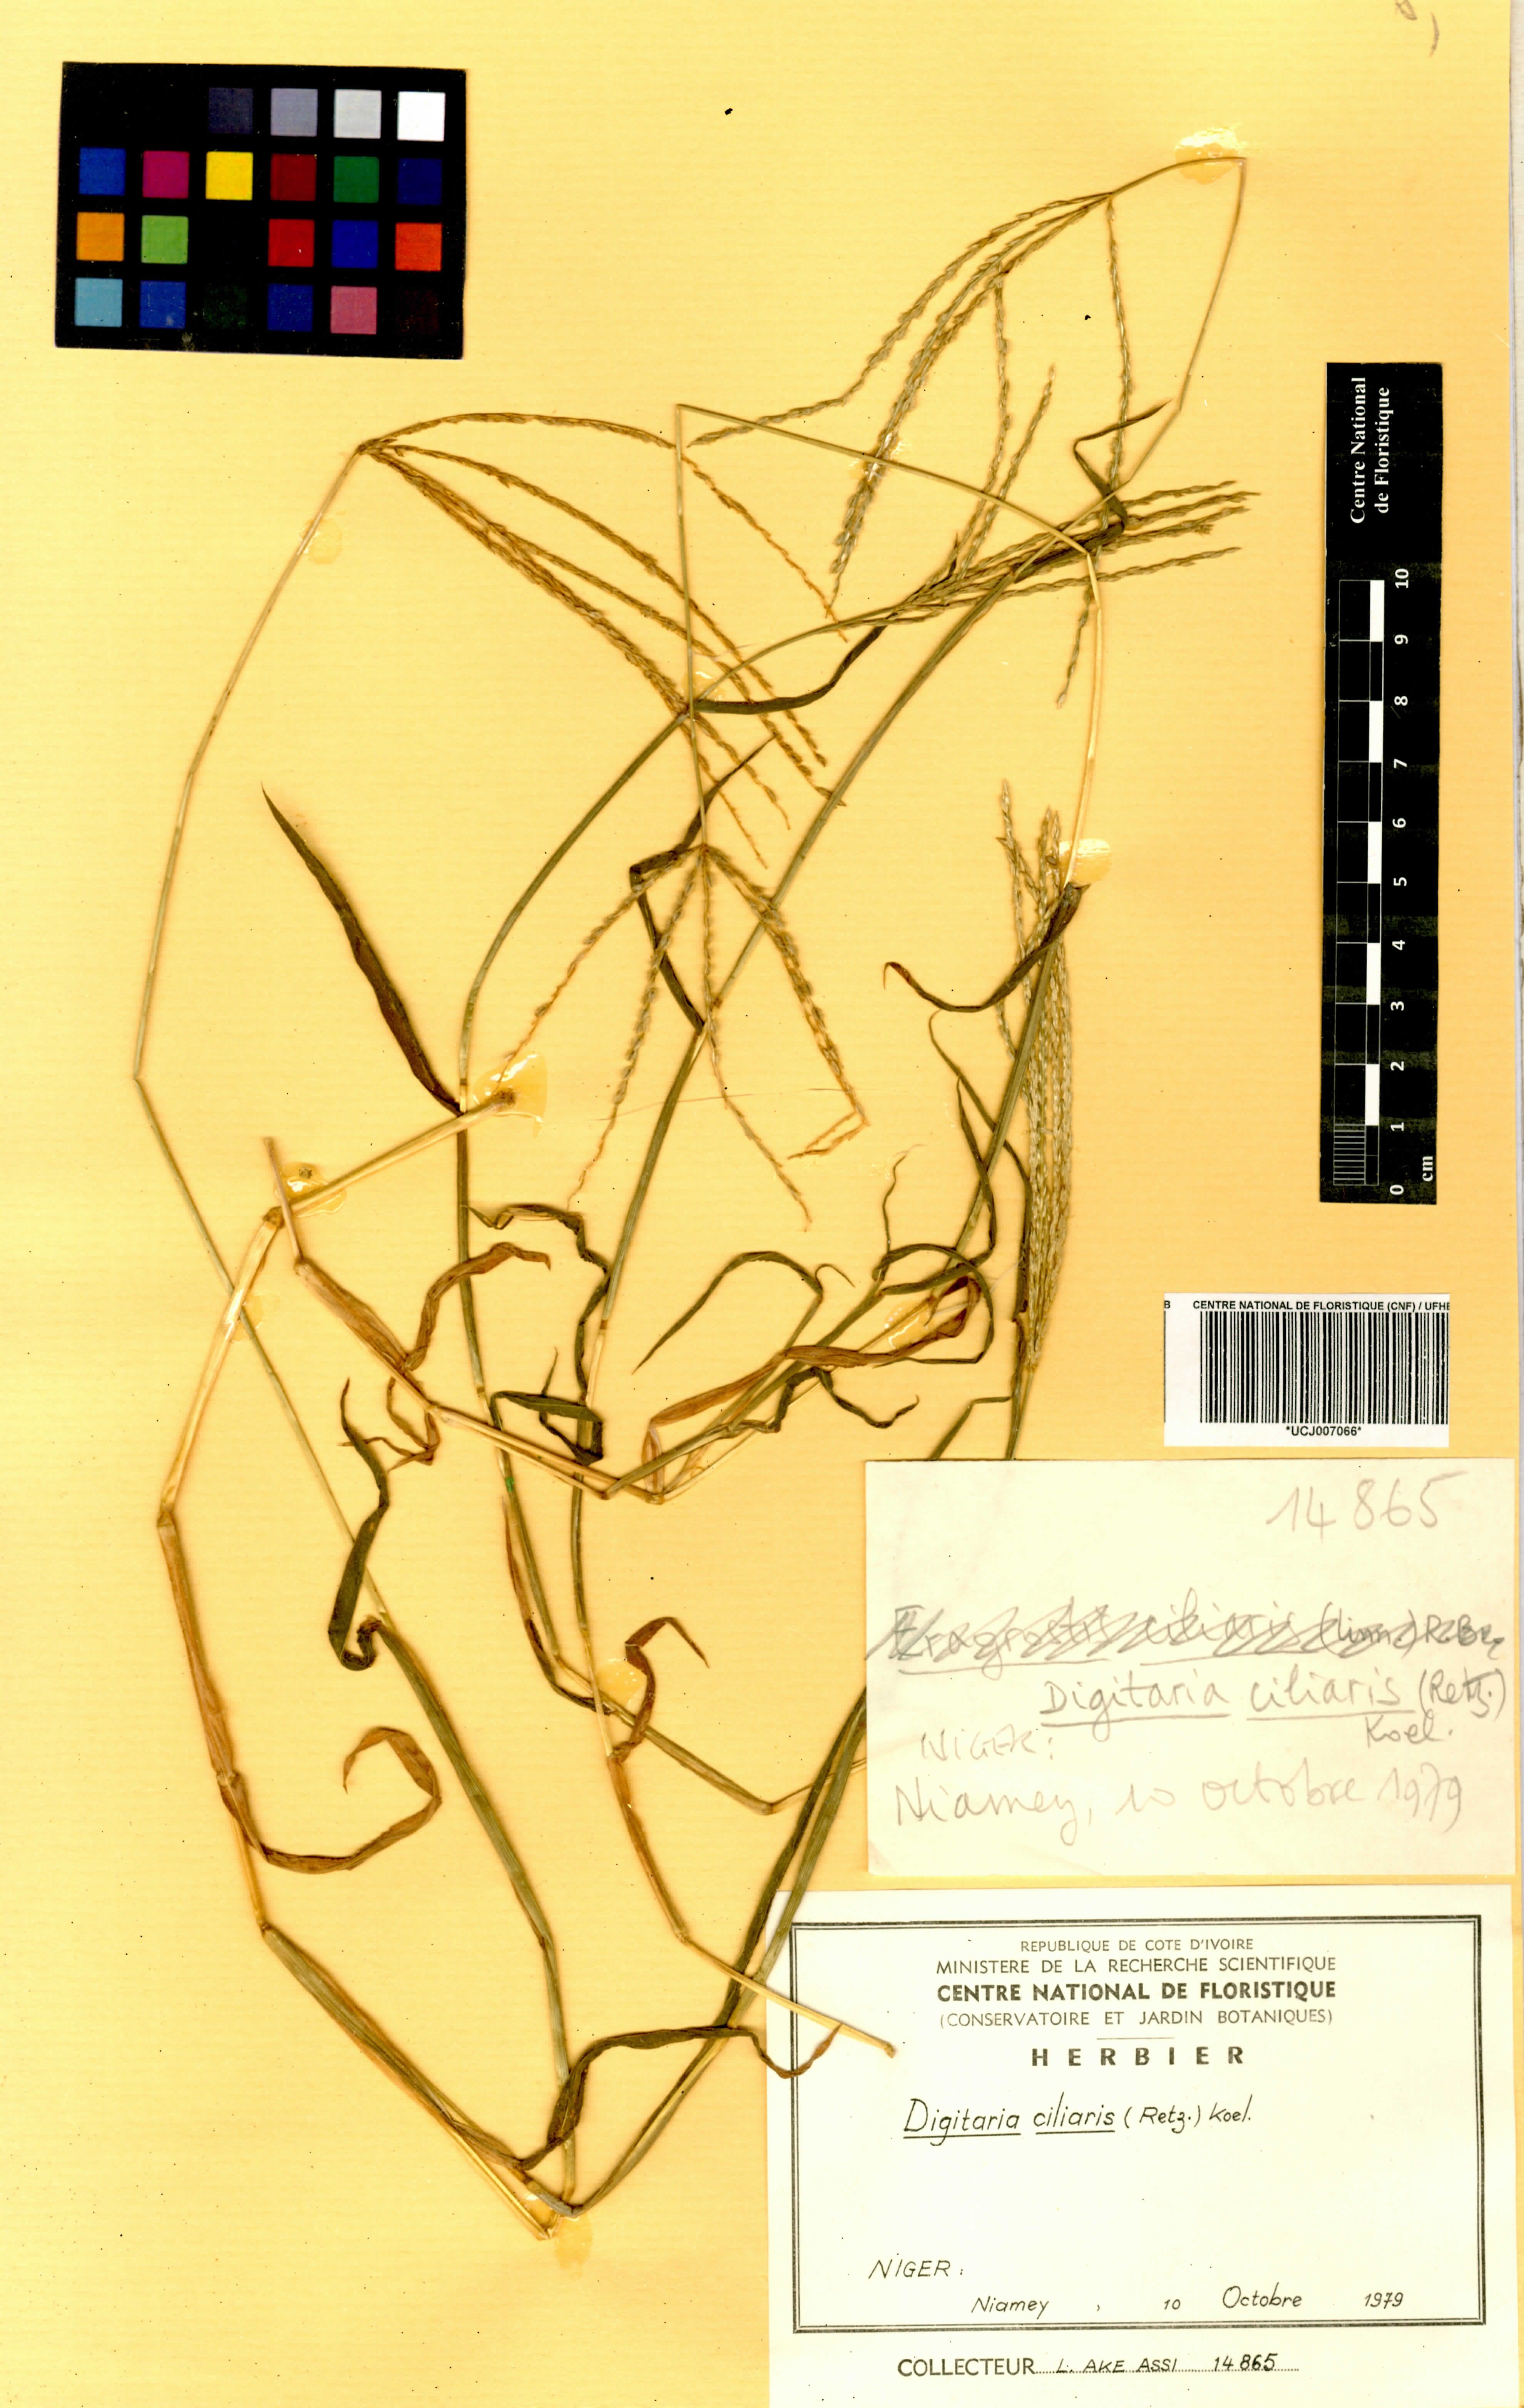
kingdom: Plantae
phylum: Tracheophyta
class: Liliopsida
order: Poales
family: Poaceae
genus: Digitaria
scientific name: Digitaria ciliaris
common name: Tropical finger-grass
